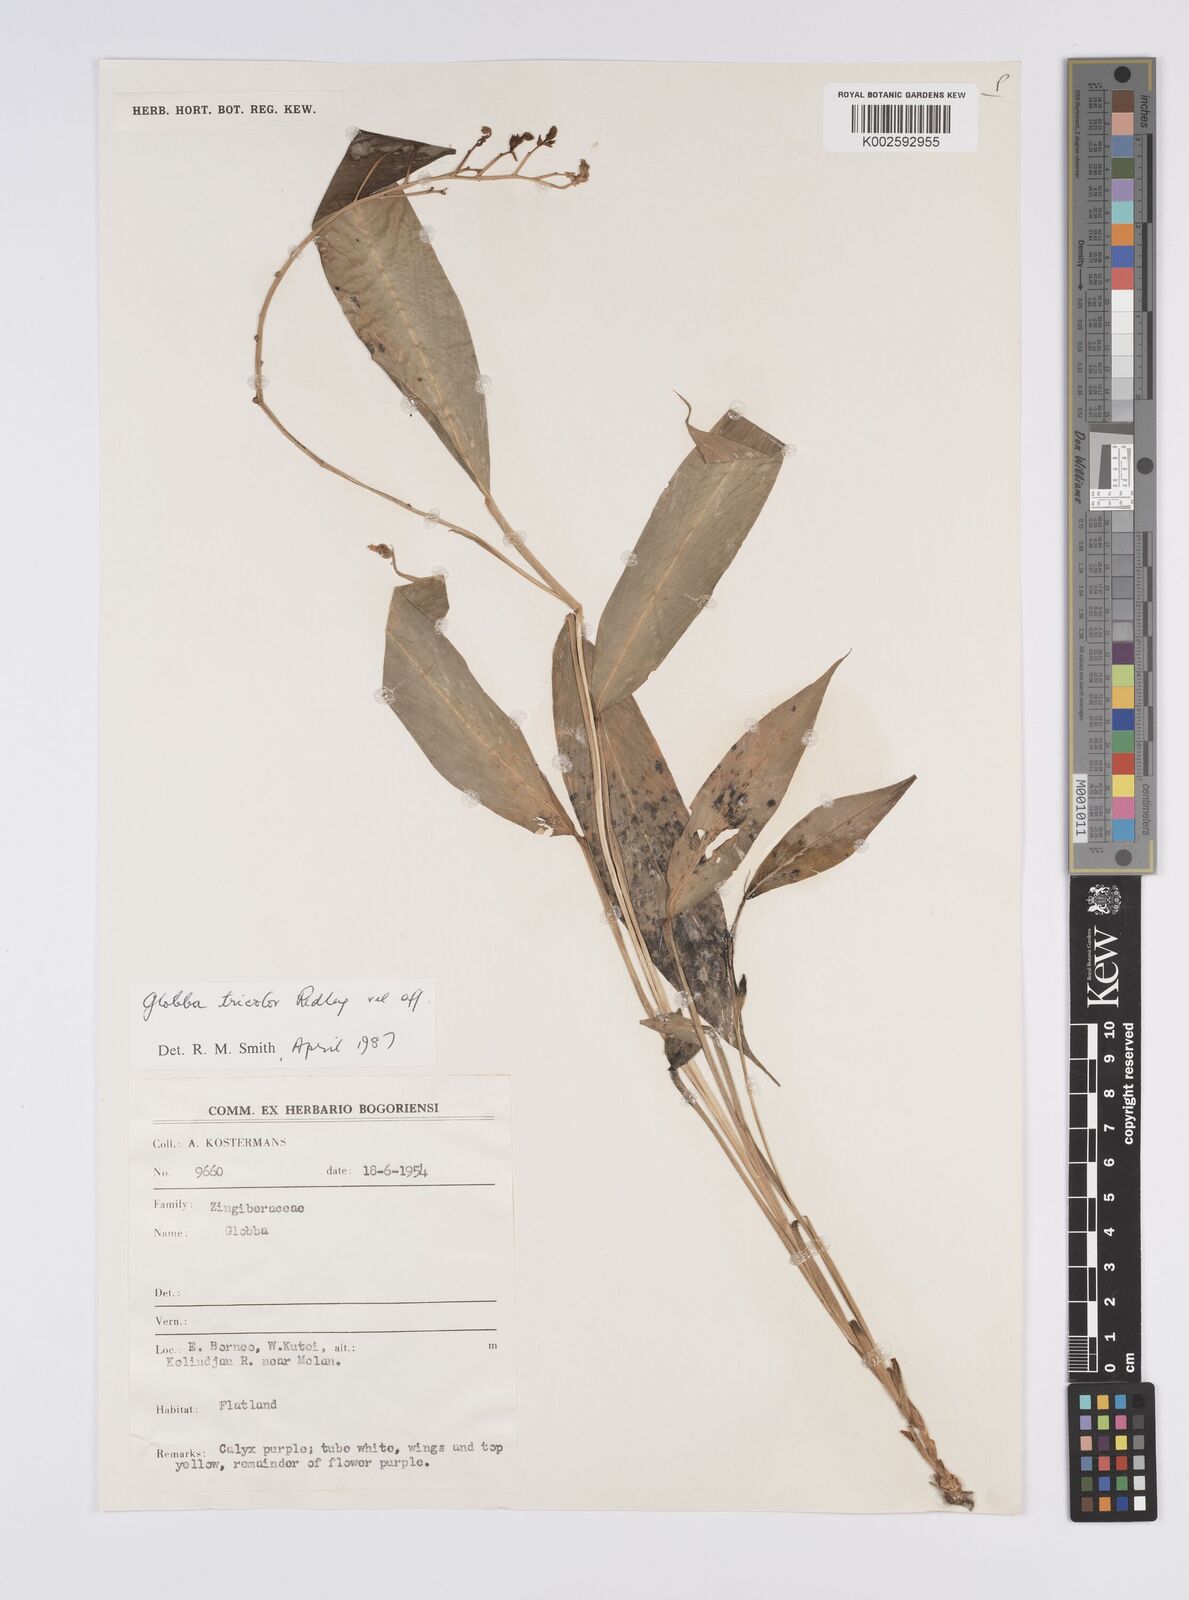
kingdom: Plantae
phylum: Tracheophyta
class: Liliopsida
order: Zingiberales
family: Zingiberaceae
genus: Globba
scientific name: Globba tricolor
